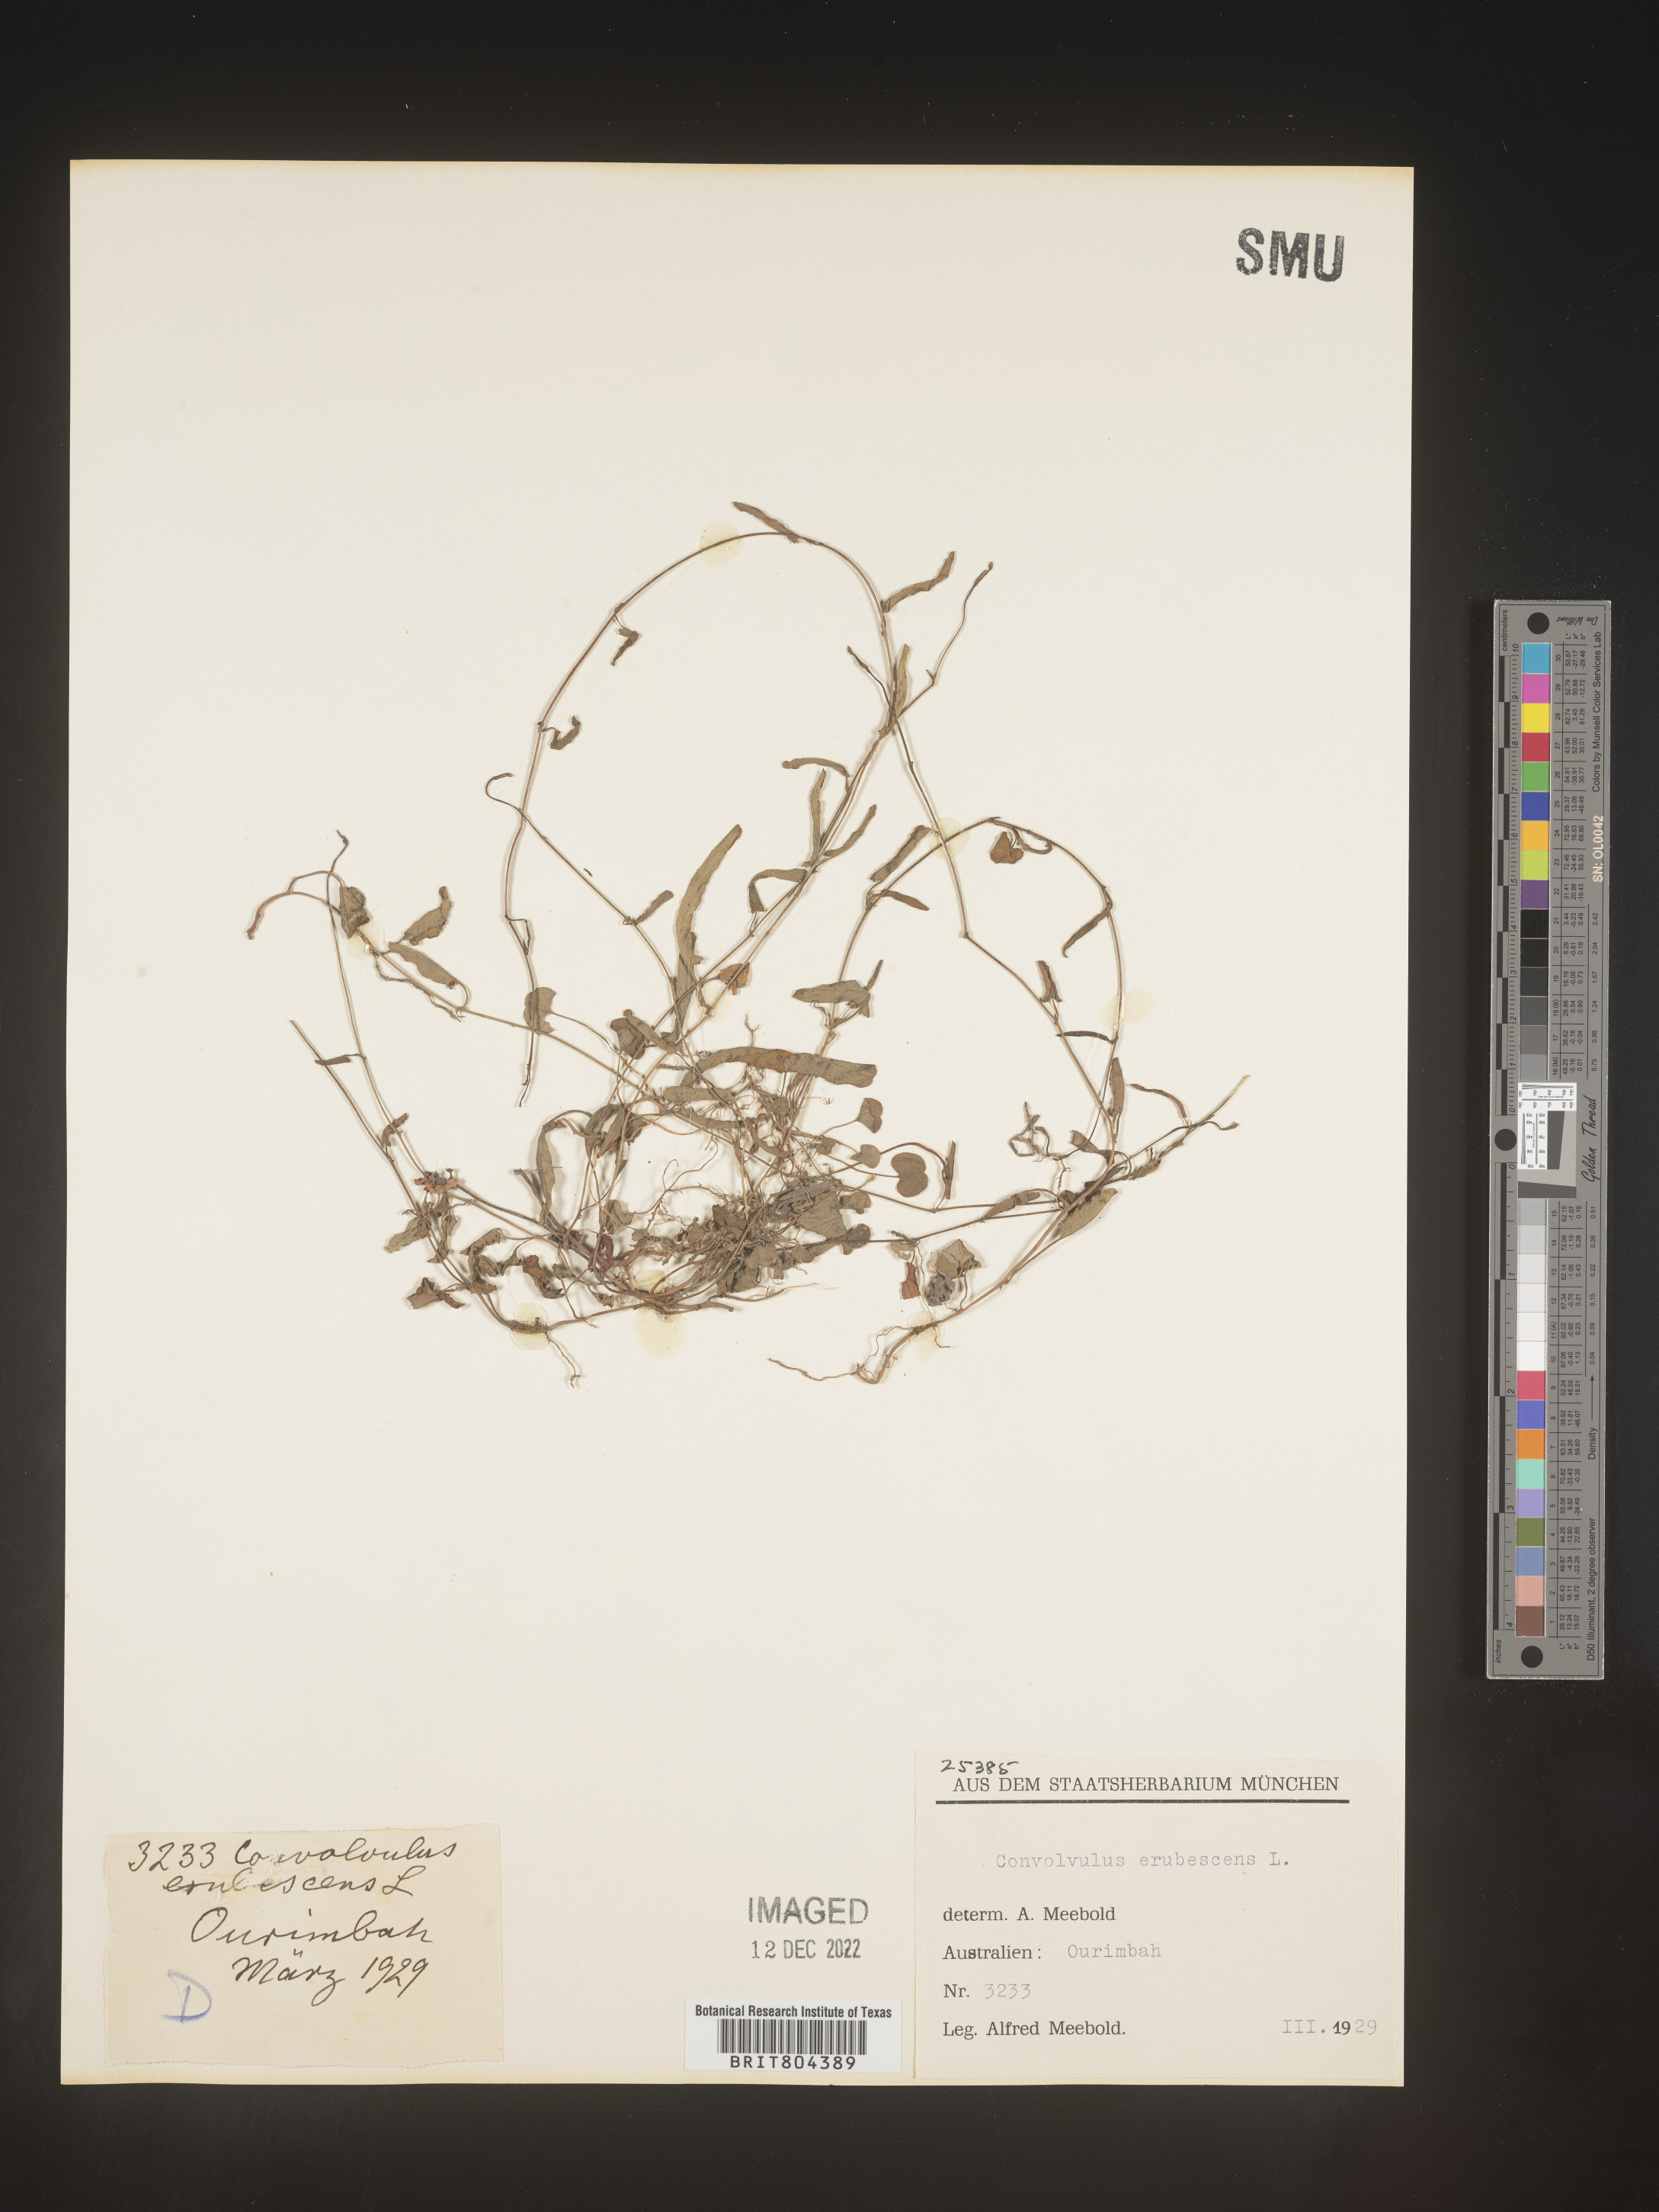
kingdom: Plantae
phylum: Tracheophyta
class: Magnoliopsida
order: Solanales
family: Convolvulaceae
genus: Convolvulus
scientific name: Convolvulus
